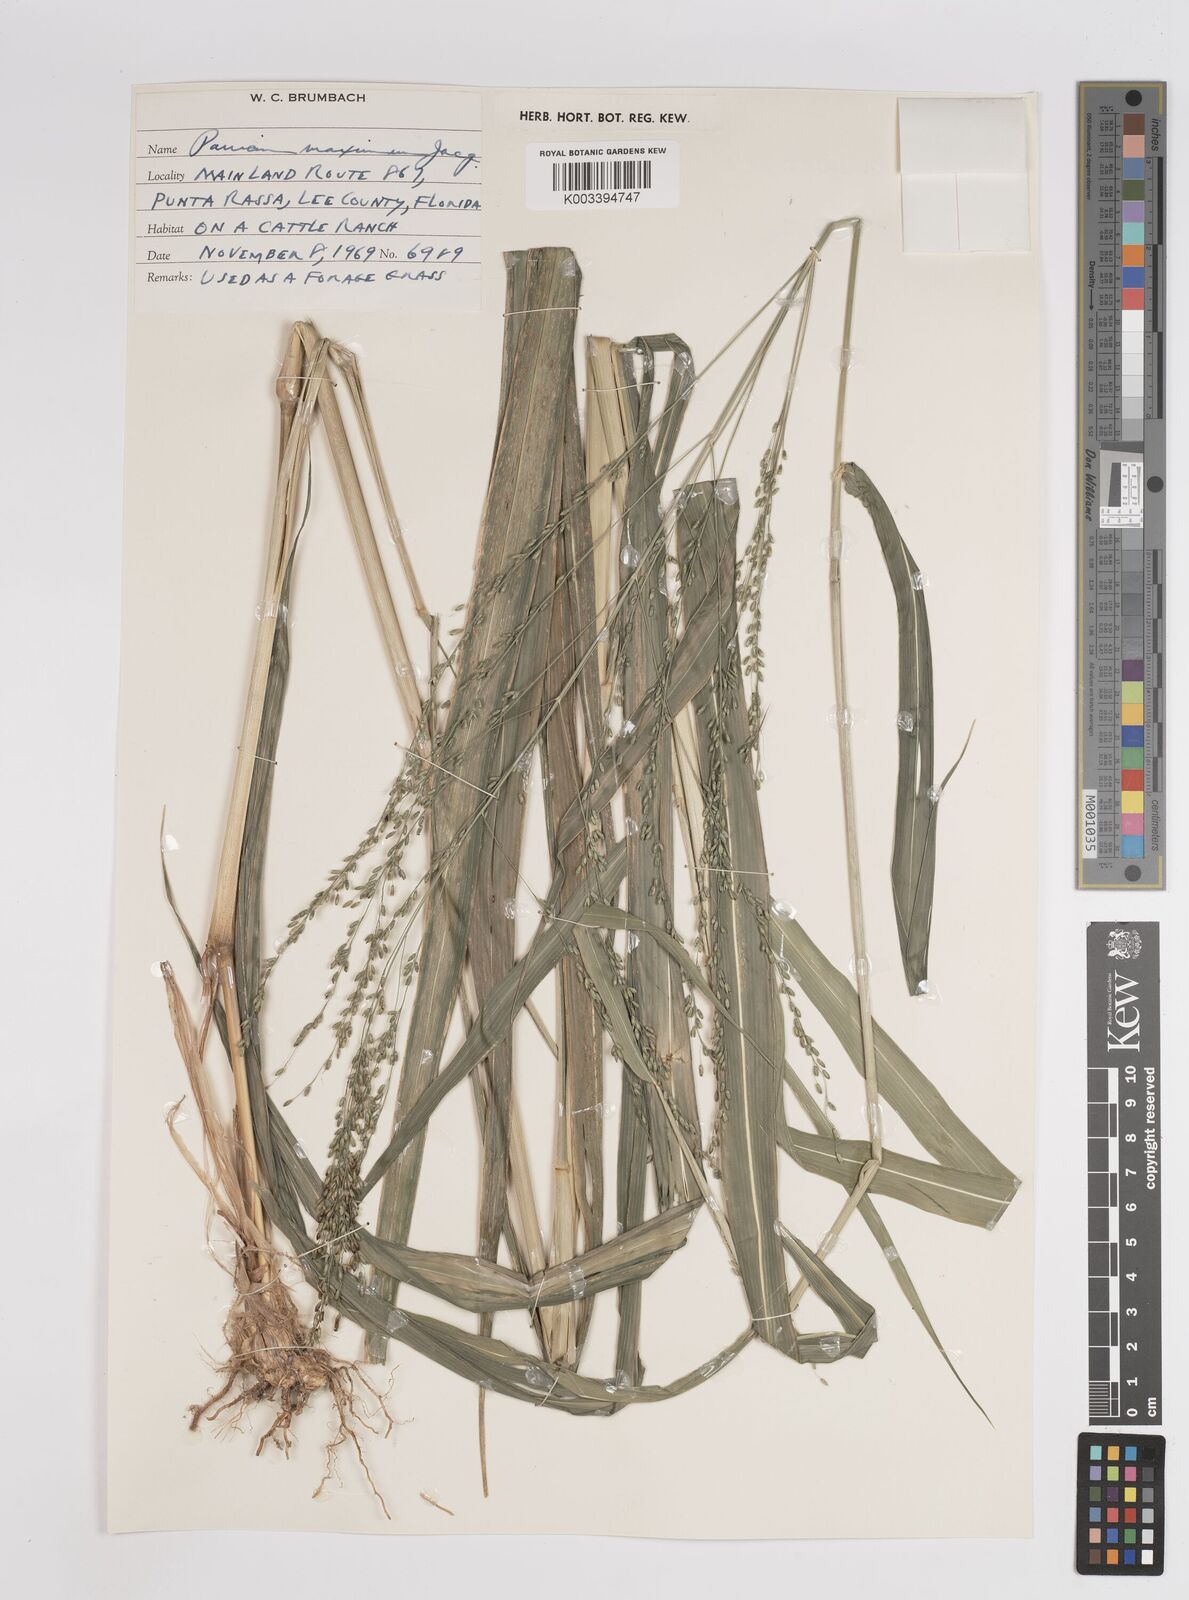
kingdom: Plantae
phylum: Tracheophyta
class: Liliopsida
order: Poales
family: Poaceae
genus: Megathyrsus
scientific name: Megathyrsus maximus
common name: Guineagrass
